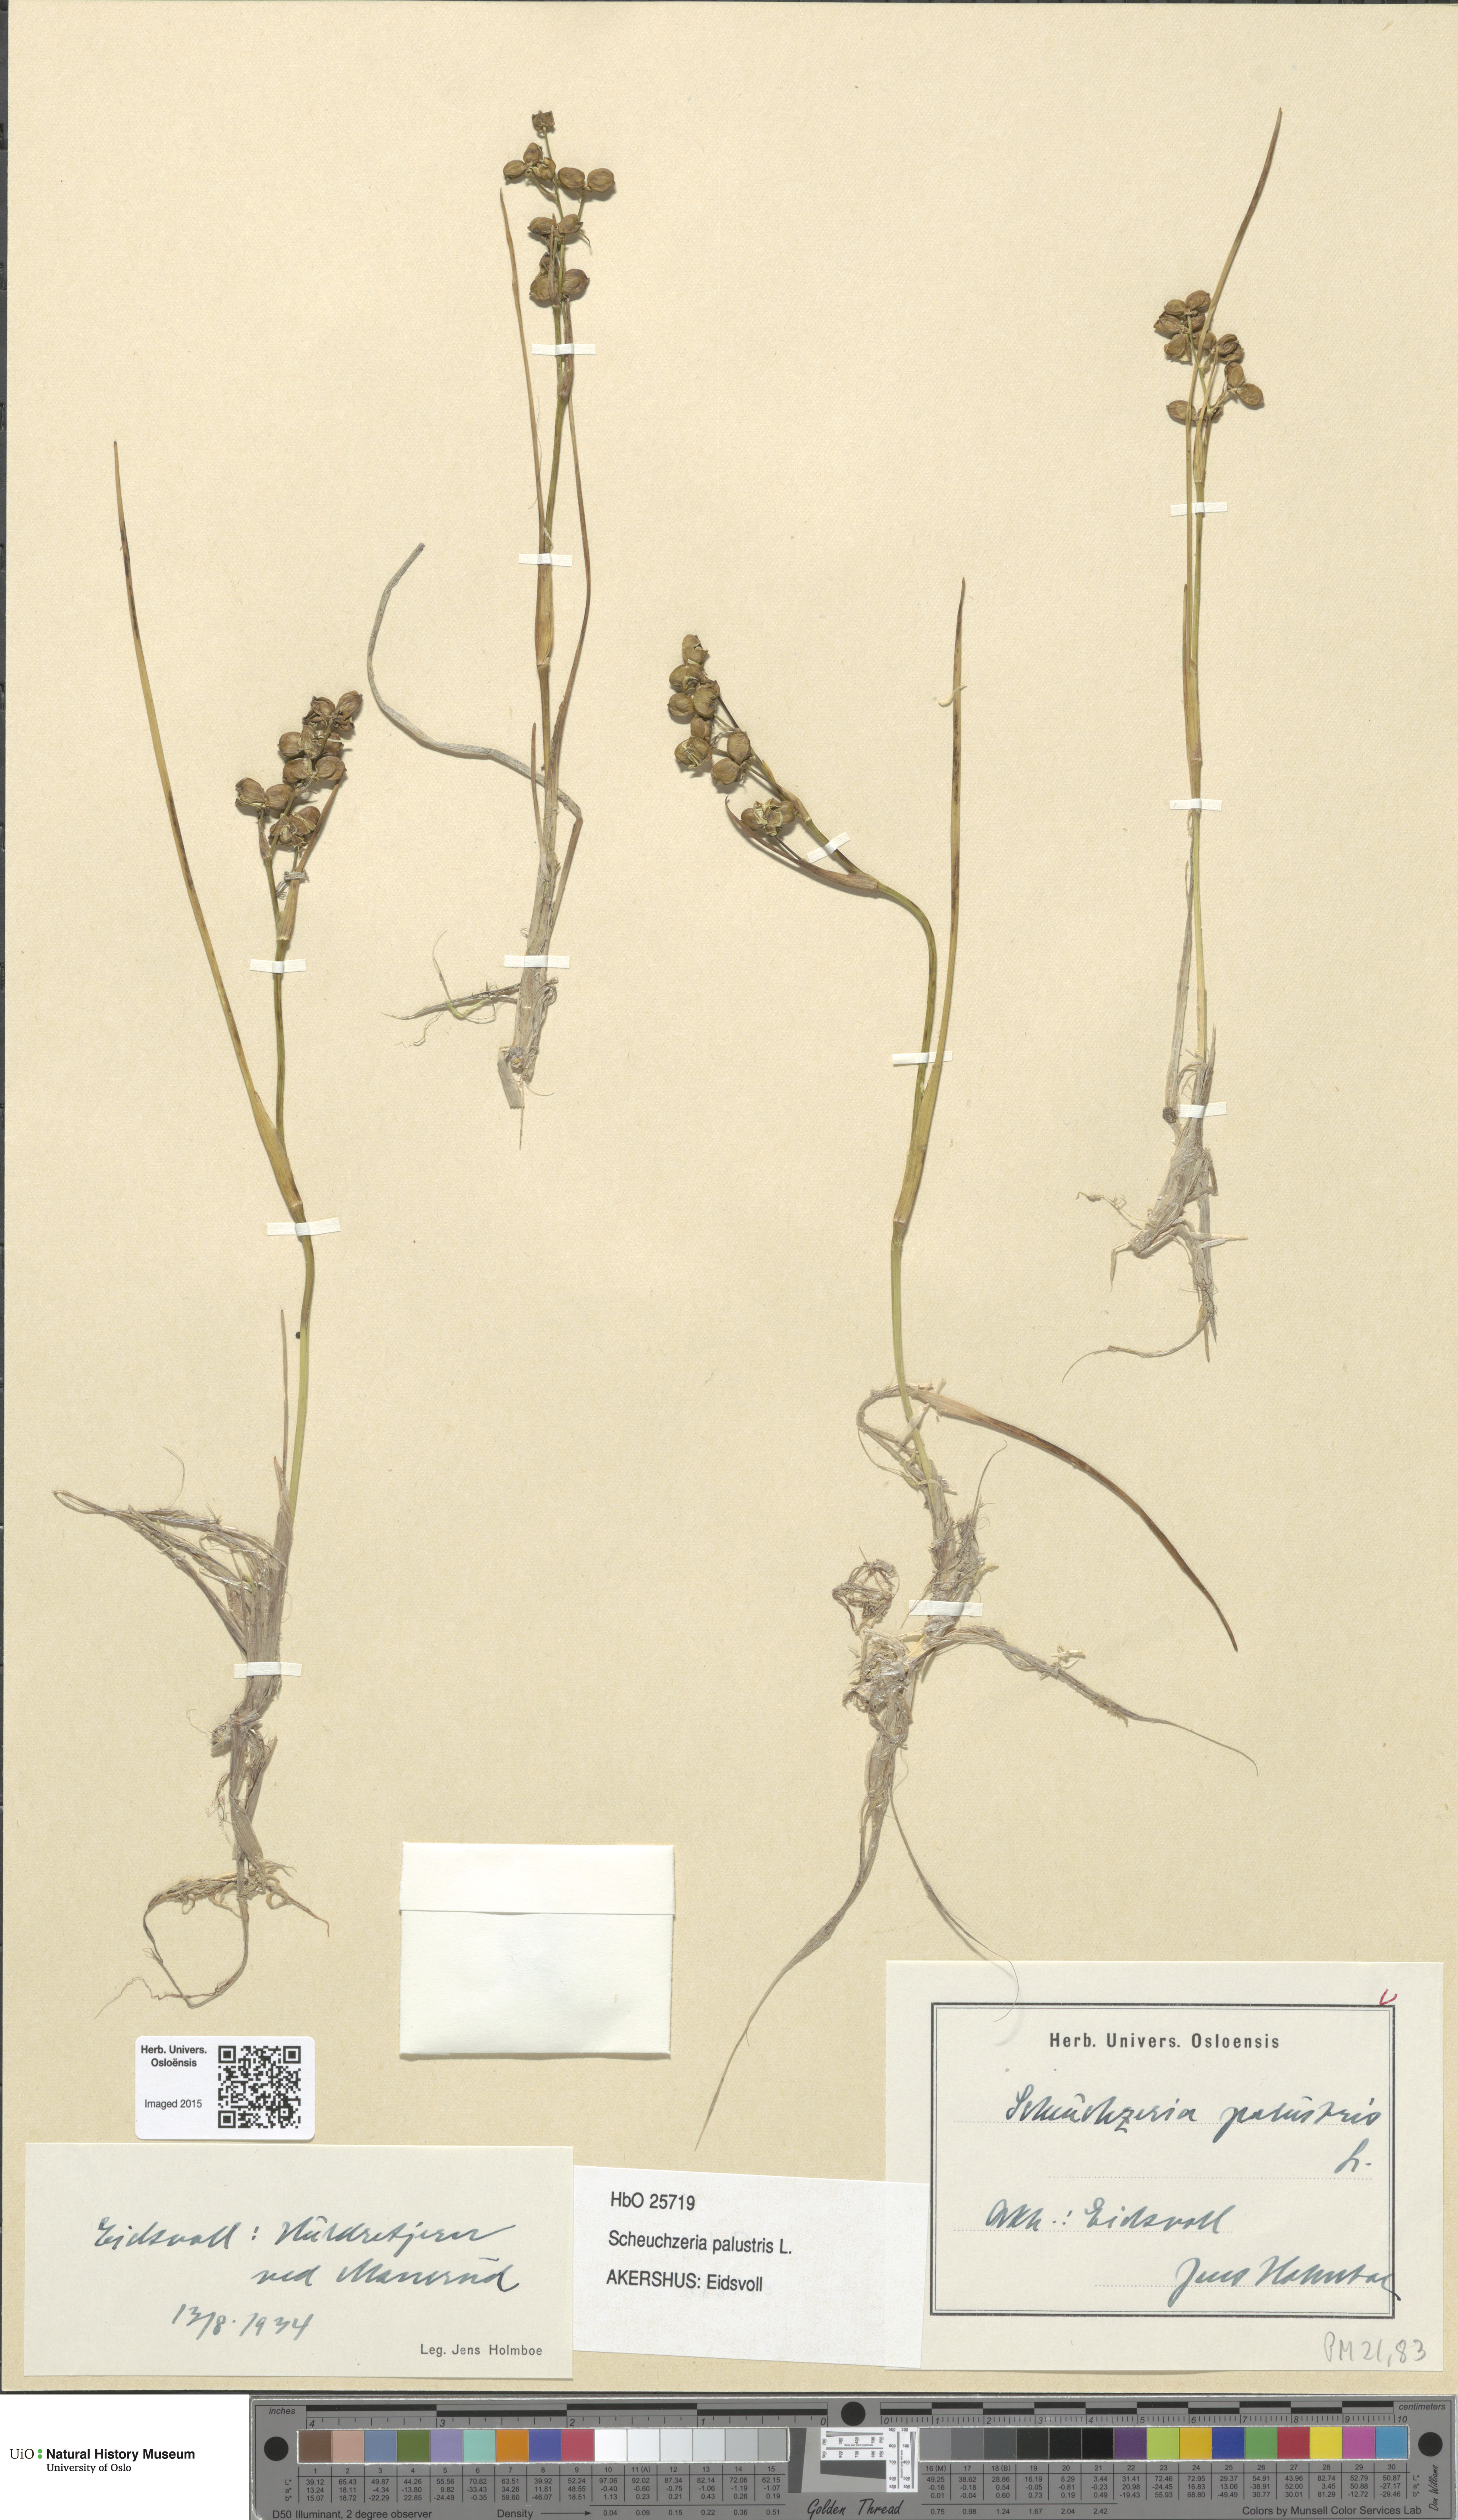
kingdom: Plantae
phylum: Tracheophyta
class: Liliopsida
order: Alismatales
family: Scheuchzeriaceae
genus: Scheuchzeria
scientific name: Scheuchzeria palustris
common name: Rannoch-rush
